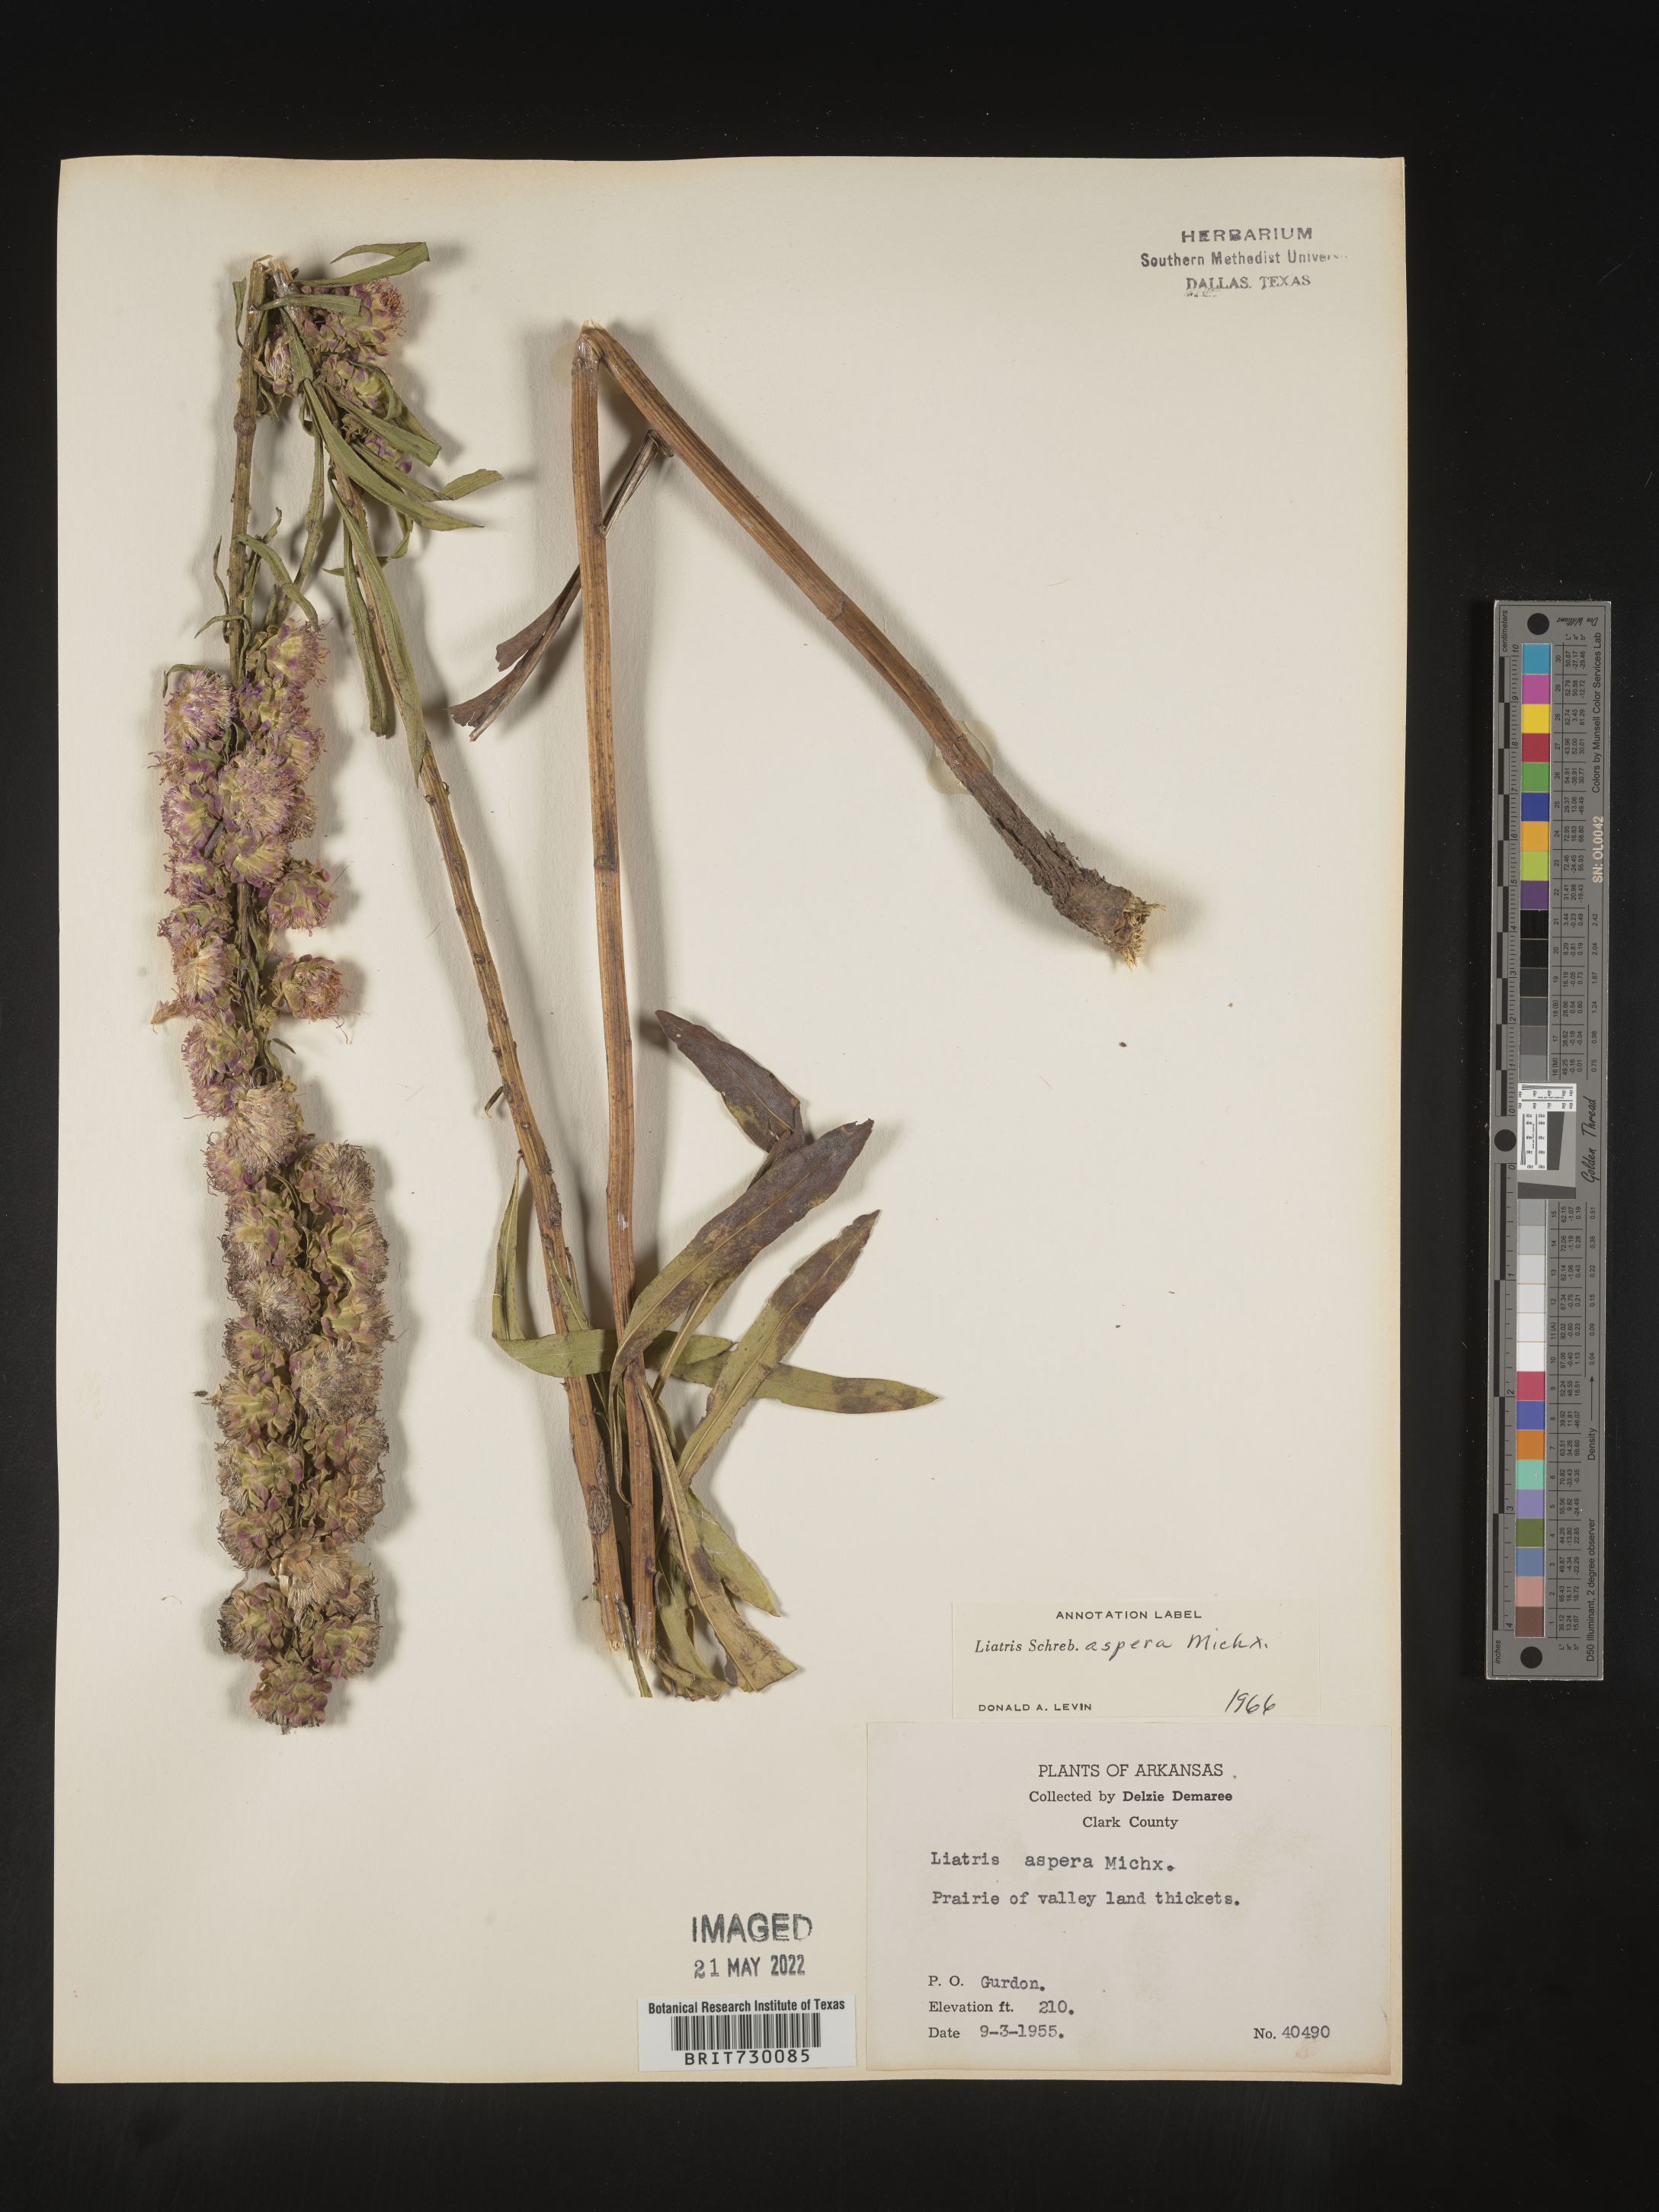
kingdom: Plantae
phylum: Tracheophyta
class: Magnoliopsida
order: Asterales
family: Asteraceae
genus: Liatris
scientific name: Liatris aspera
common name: Lacerate blazing-star
